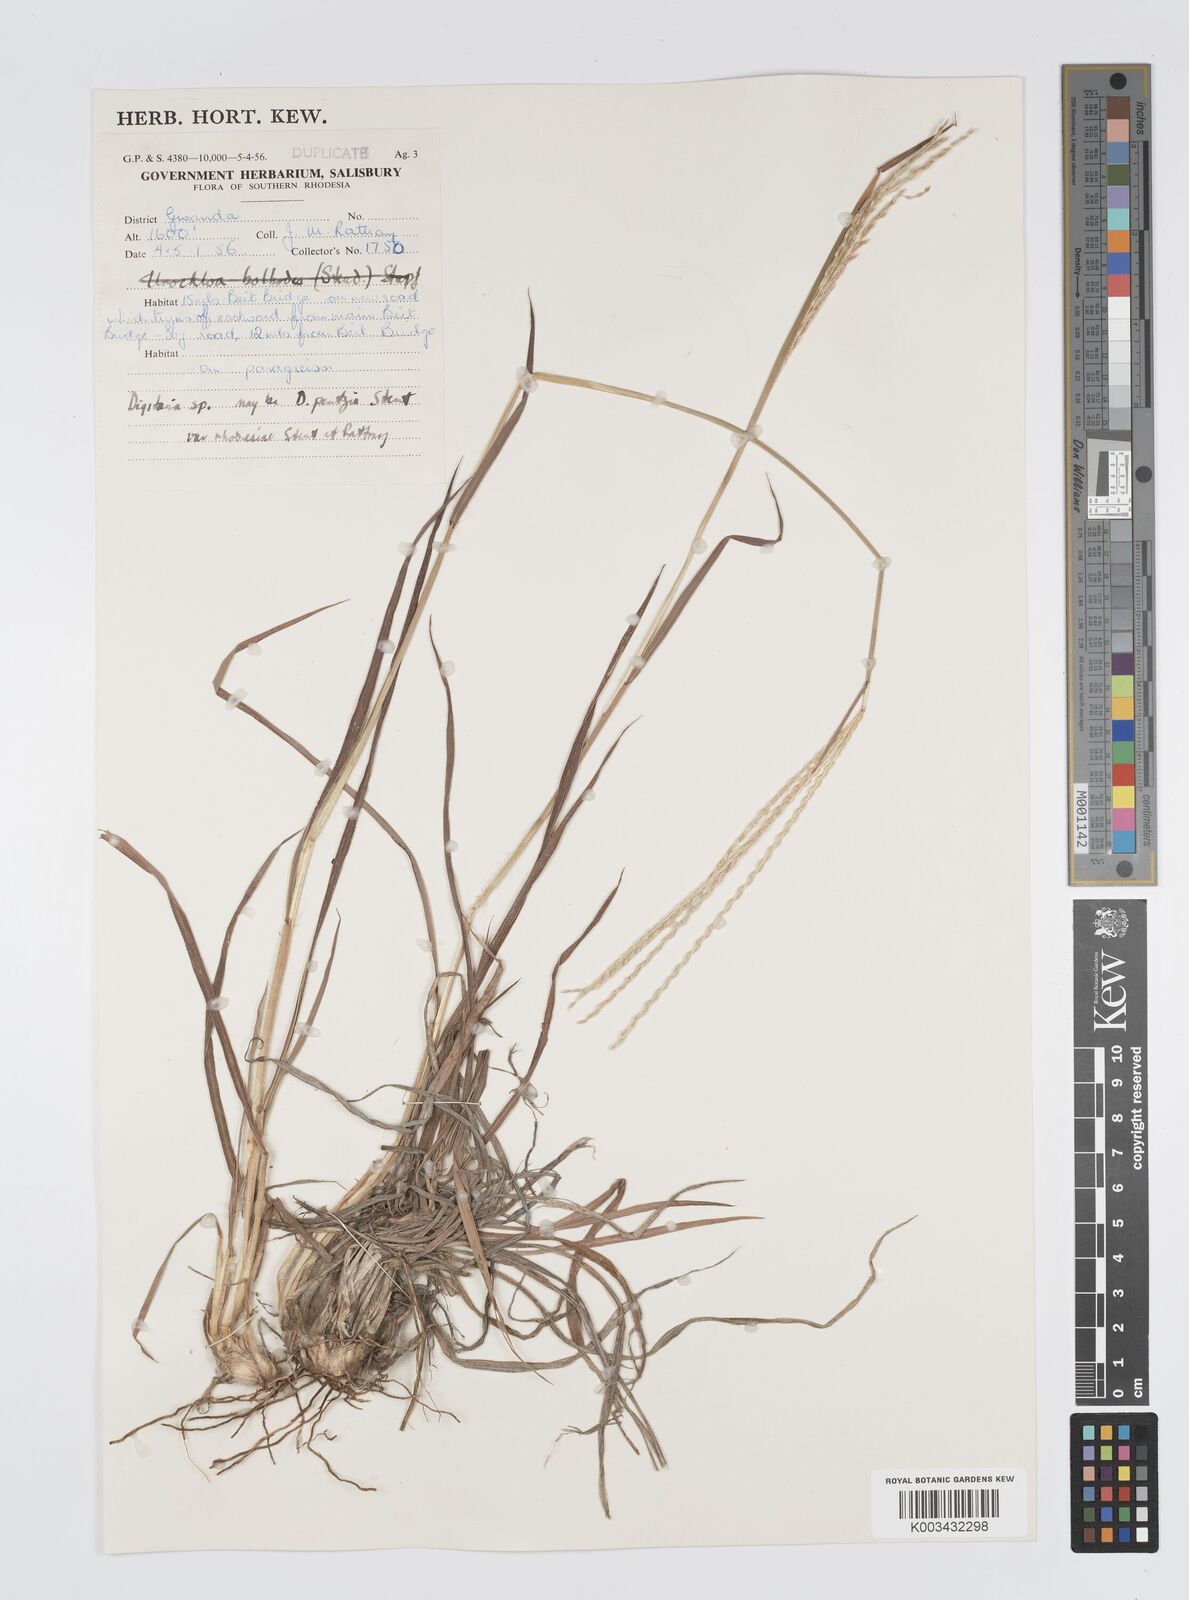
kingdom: Plantae
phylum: Tracheophyta
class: Liliopsida
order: Poales
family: Poaceae
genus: Digitaria
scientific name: Digitaria seriata
